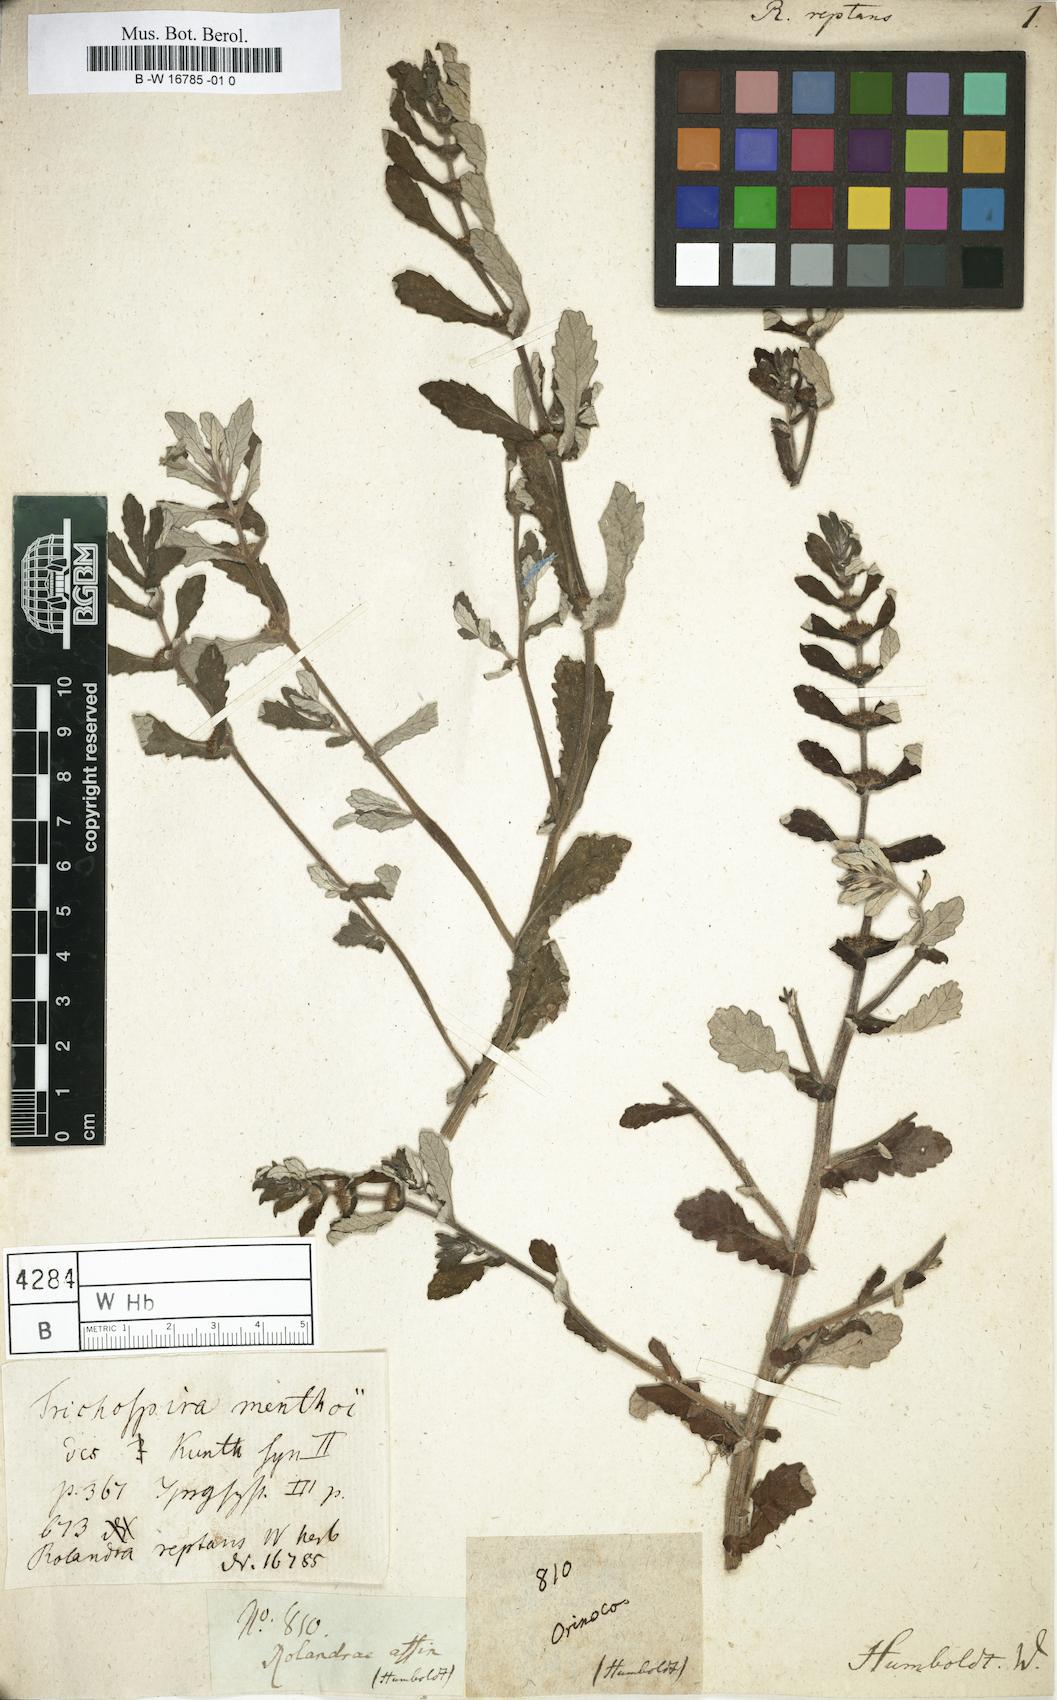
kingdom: Chromista
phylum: Ciliophora
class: Kinetofragminophora
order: Trichostomatida
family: Trichospiridae
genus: Trichospira
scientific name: Trichospira verticillata
